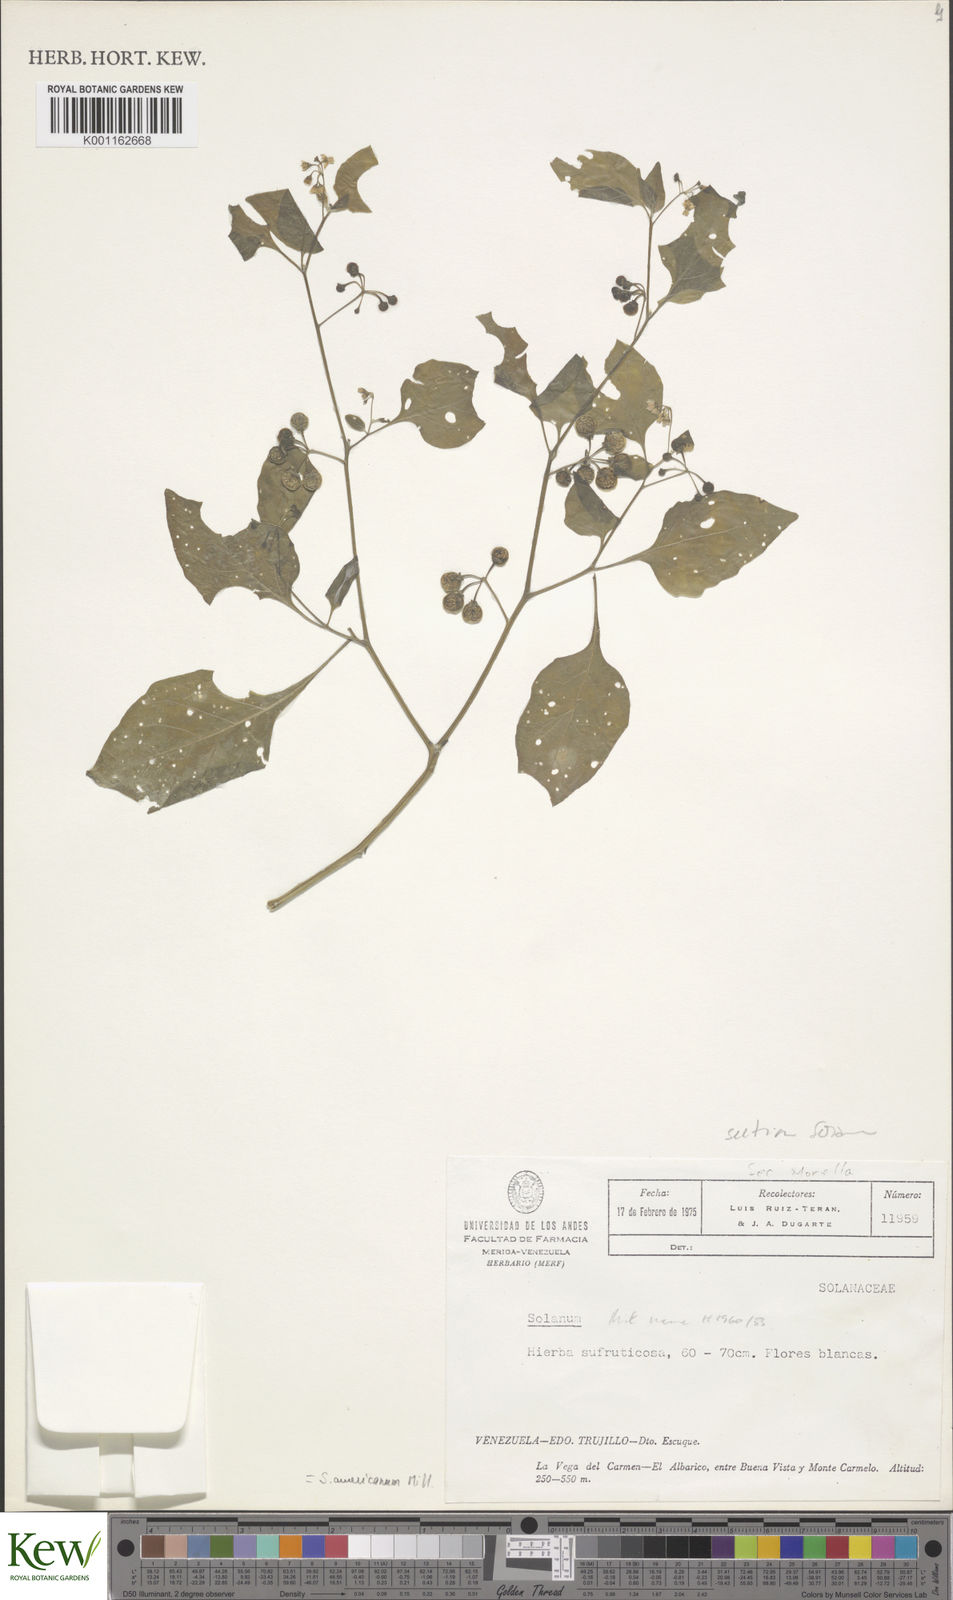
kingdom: Plantae
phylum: Tracheophyta
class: Magnoliopsida
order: Solanales
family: Solanaceae
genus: Solanum
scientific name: Solanum americanum
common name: American black nightshade
